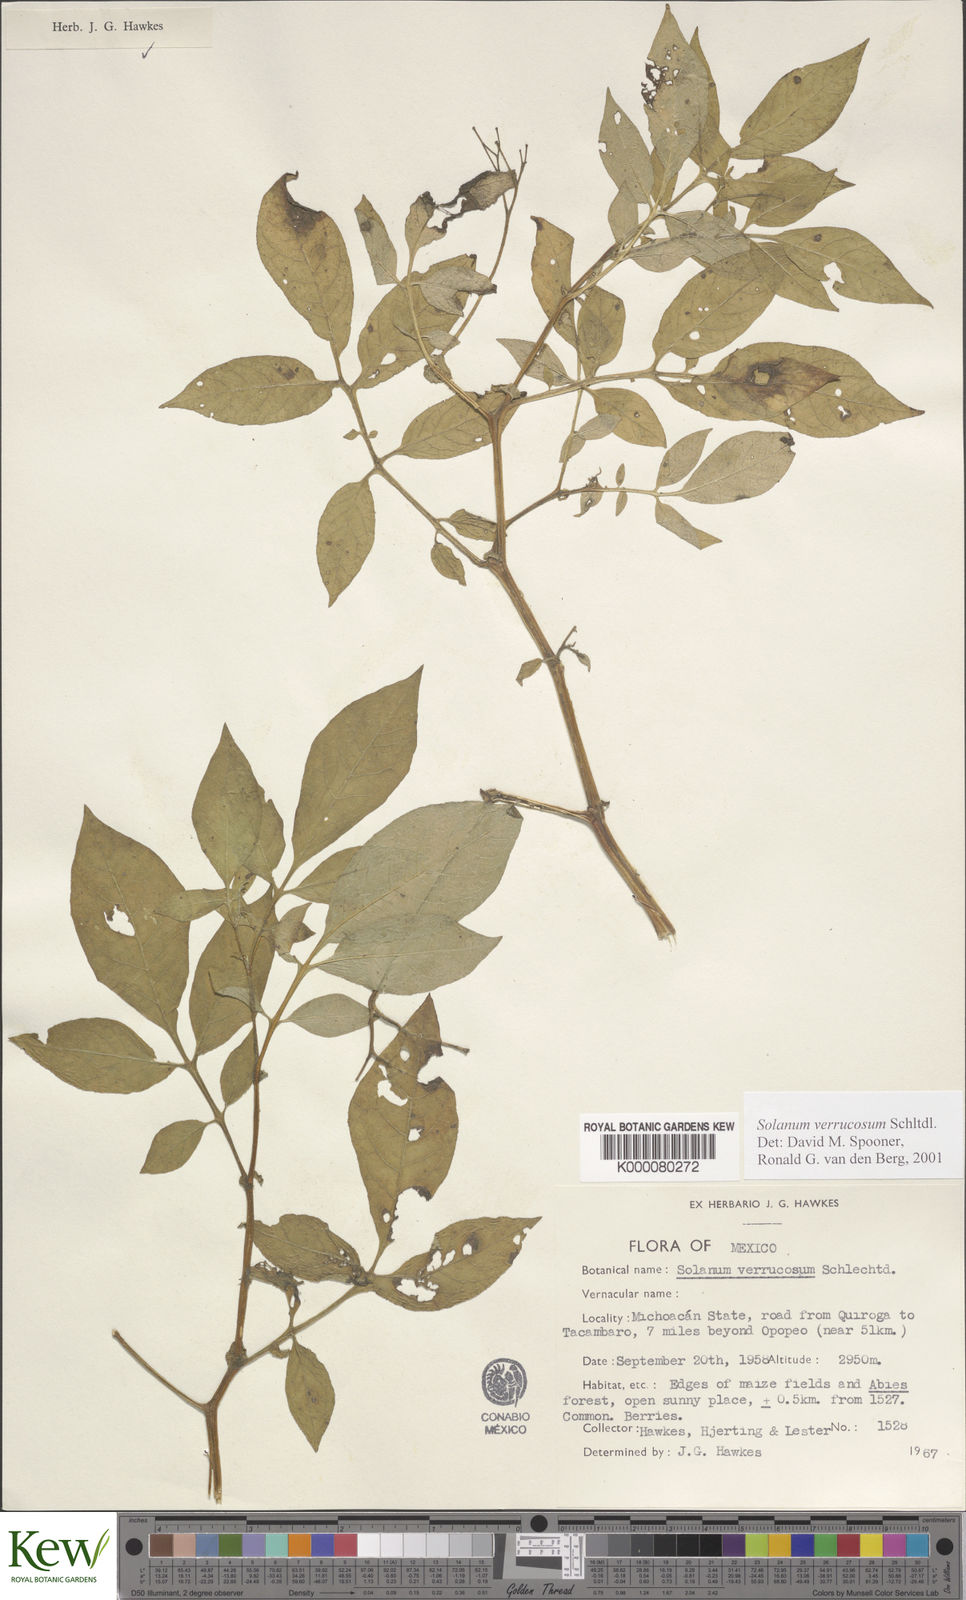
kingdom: Plantae
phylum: Tracheophyta
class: Magnoliopsida
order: Solanales
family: Solanaceae
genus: Solanum
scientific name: Solanum verrucosum
